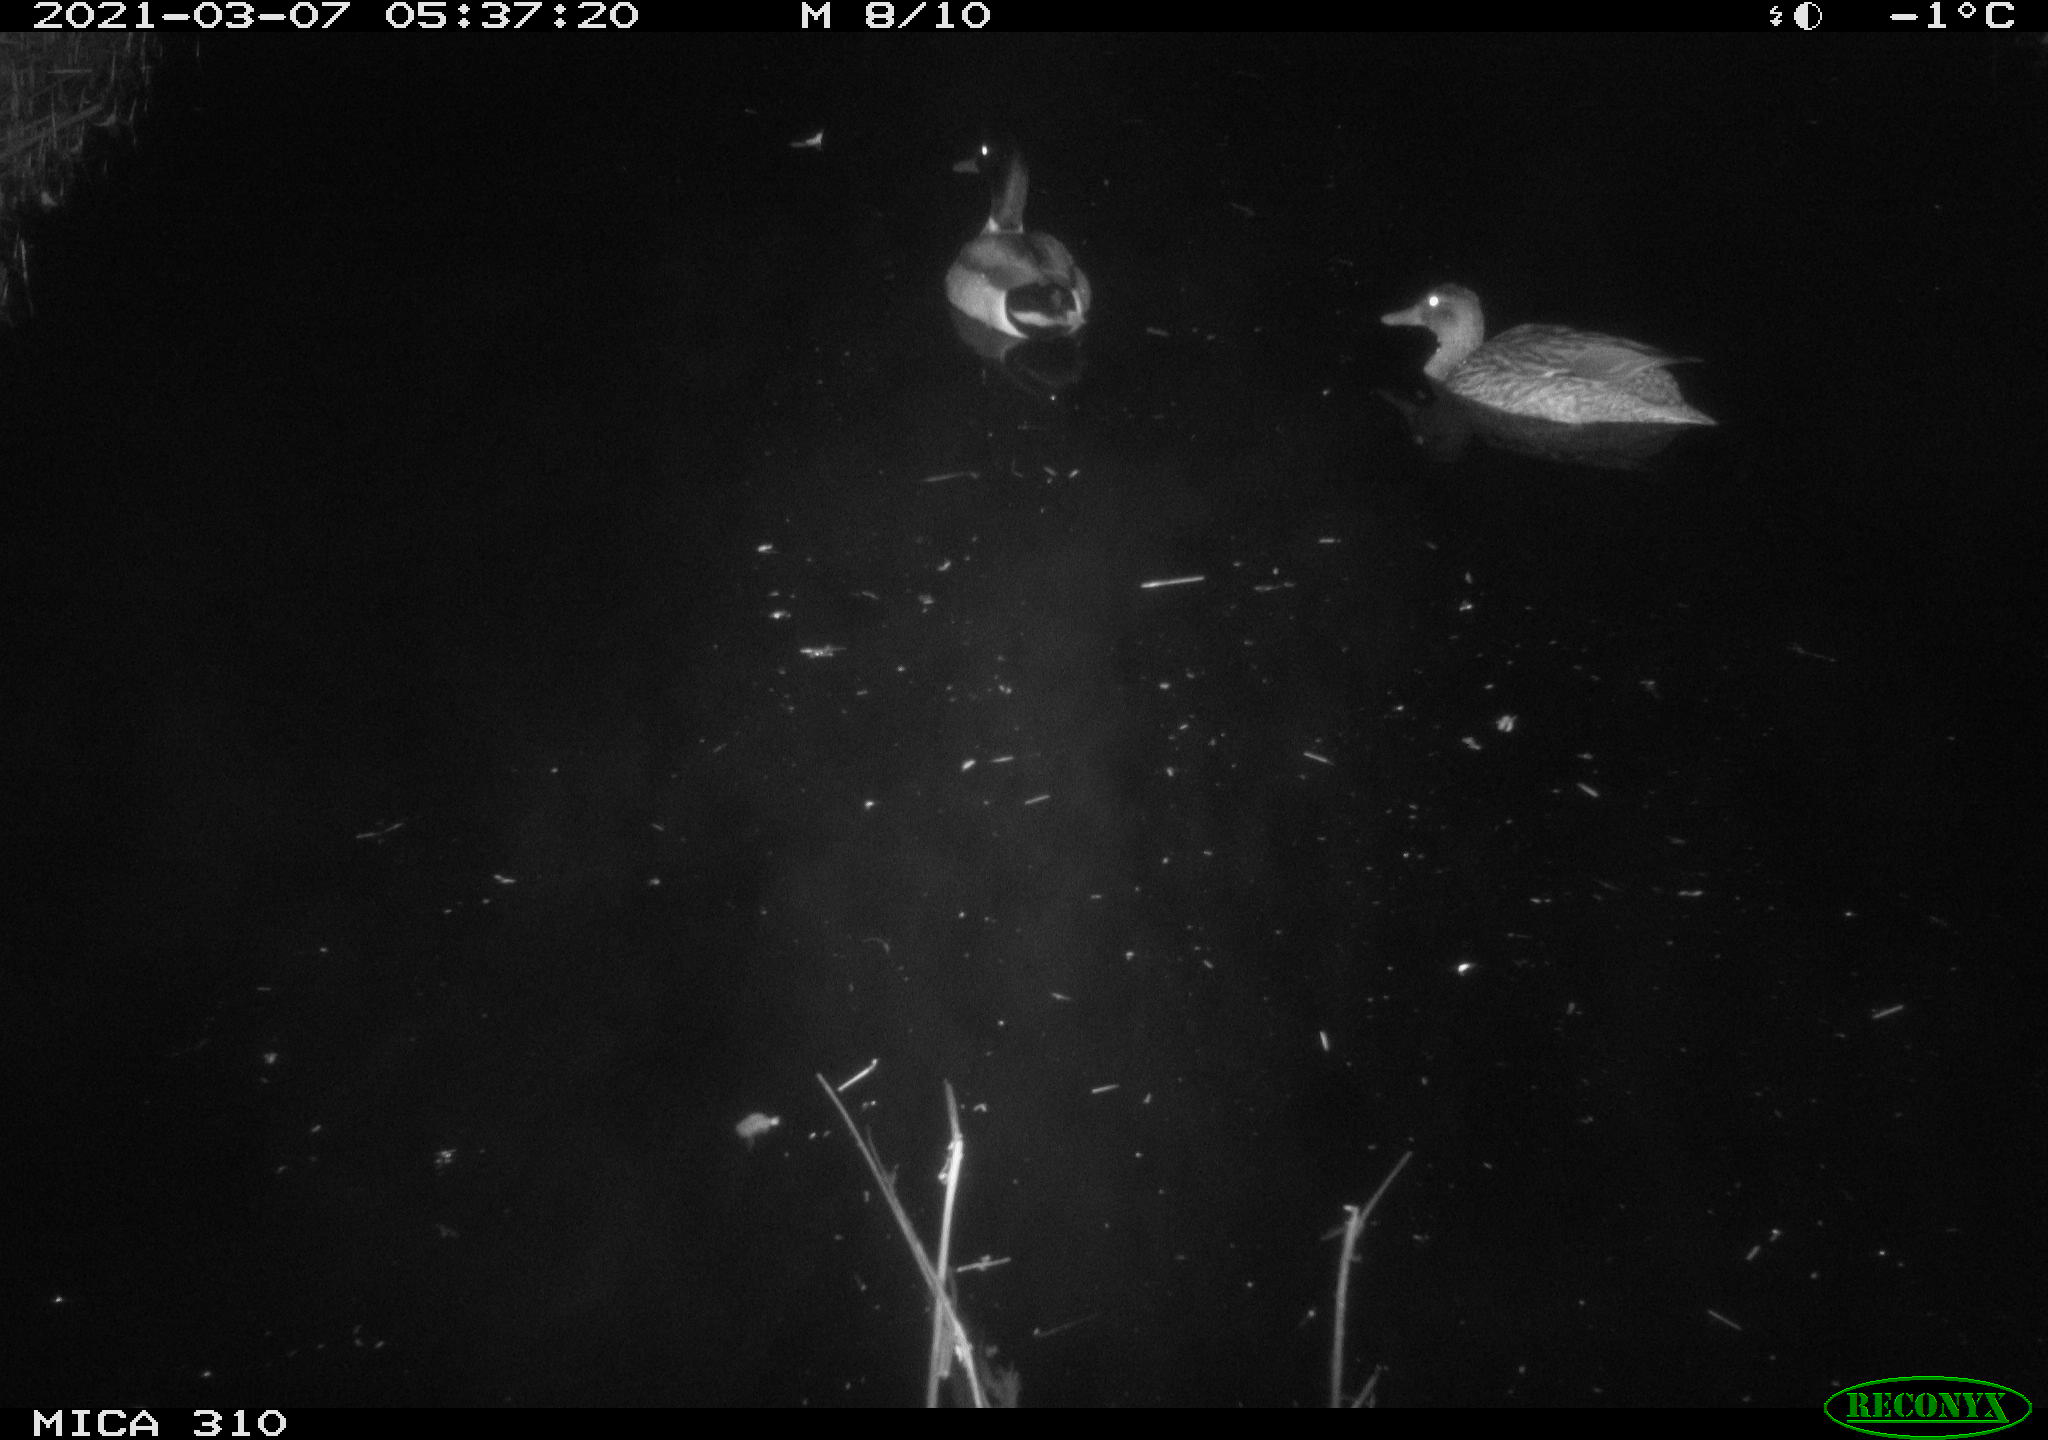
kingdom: Animalia
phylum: Chordata
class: Aves
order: Anseriformes
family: Anatidae
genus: Anas
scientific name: Anas platyrhynchos
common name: Mallard
